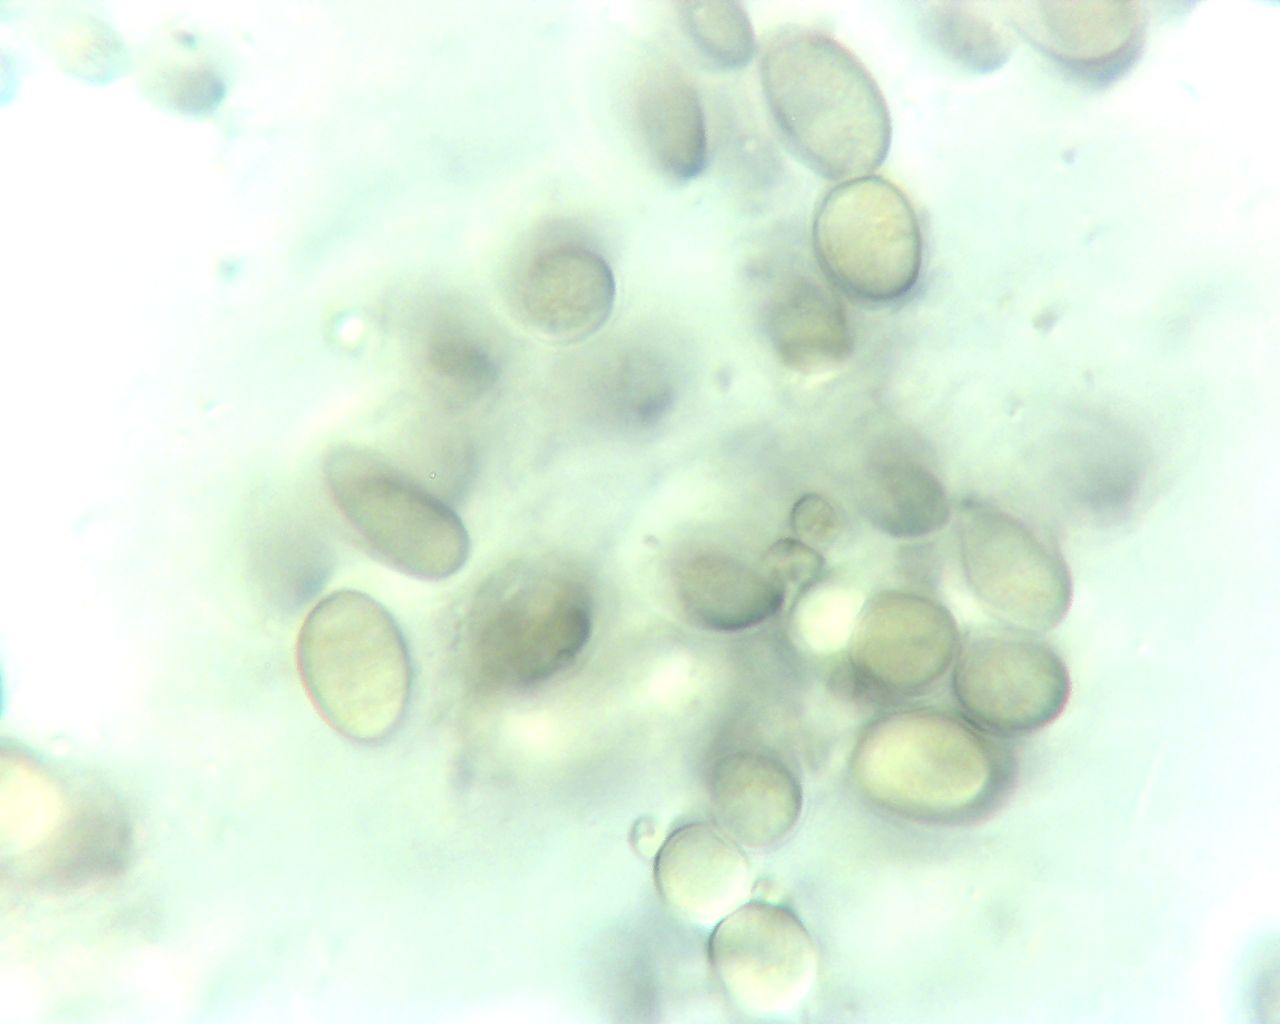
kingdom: Fungi
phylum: Mucoromycota
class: Mucoromycetes
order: Mucorales
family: Pilobolaceae
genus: Pilobolus
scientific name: Pilobolus crystallinus
